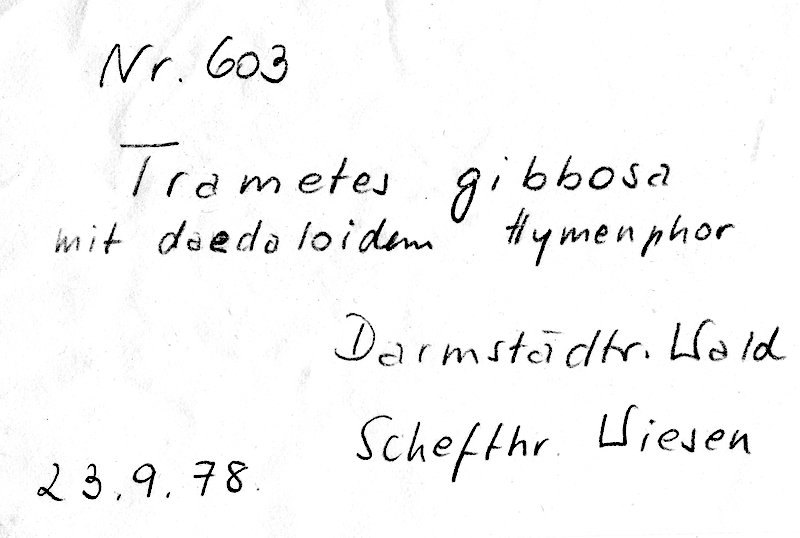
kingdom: Fungi
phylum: Basidiomycota
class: Agaricomycetes
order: Polyporales
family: Polyporaceae
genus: Trametes
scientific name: Trametes gibbosa
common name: Lumpy bracket
